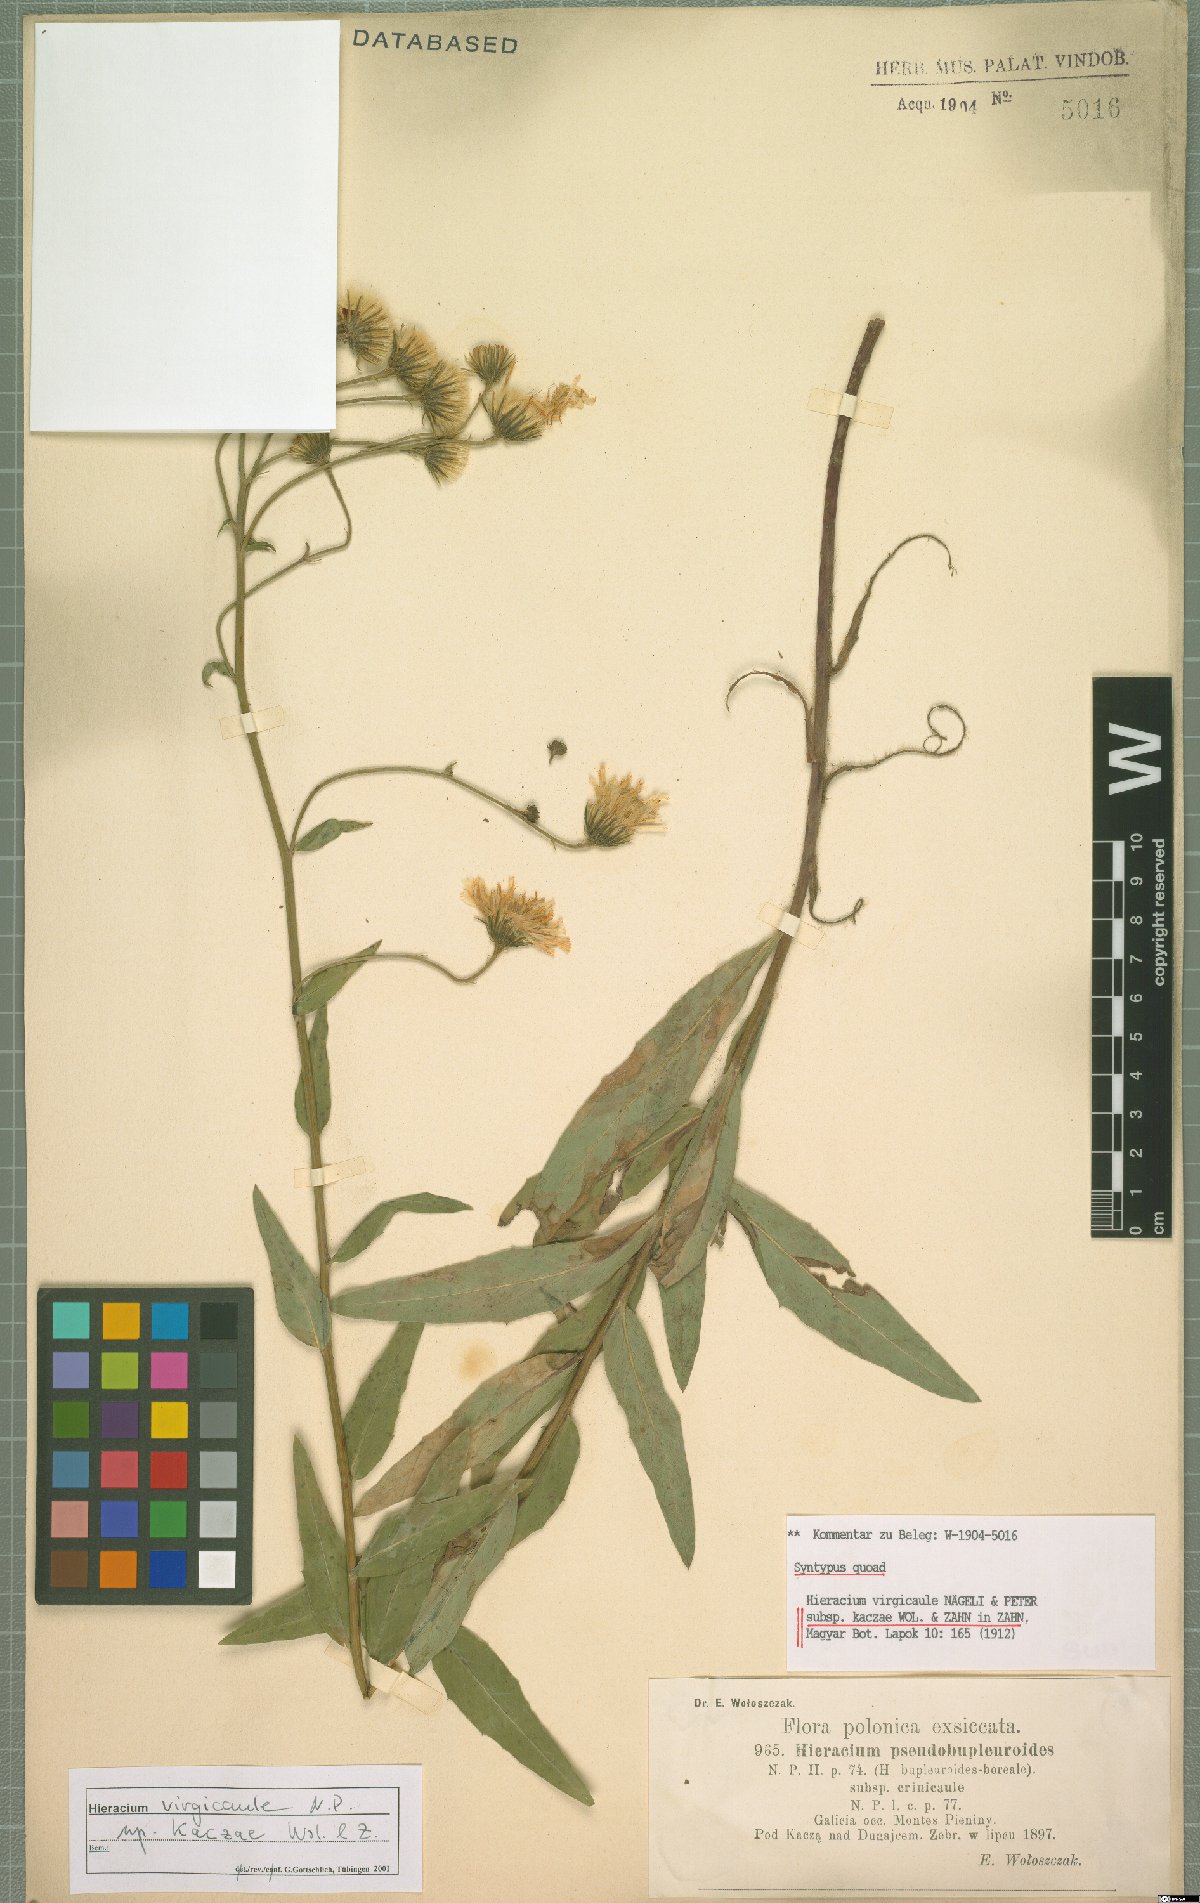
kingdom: Plantae
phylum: Tracheophyta
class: Magnoliopsida
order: Asterales
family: Asteraceae
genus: Hieracium
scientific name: Hieracium virgicaule
